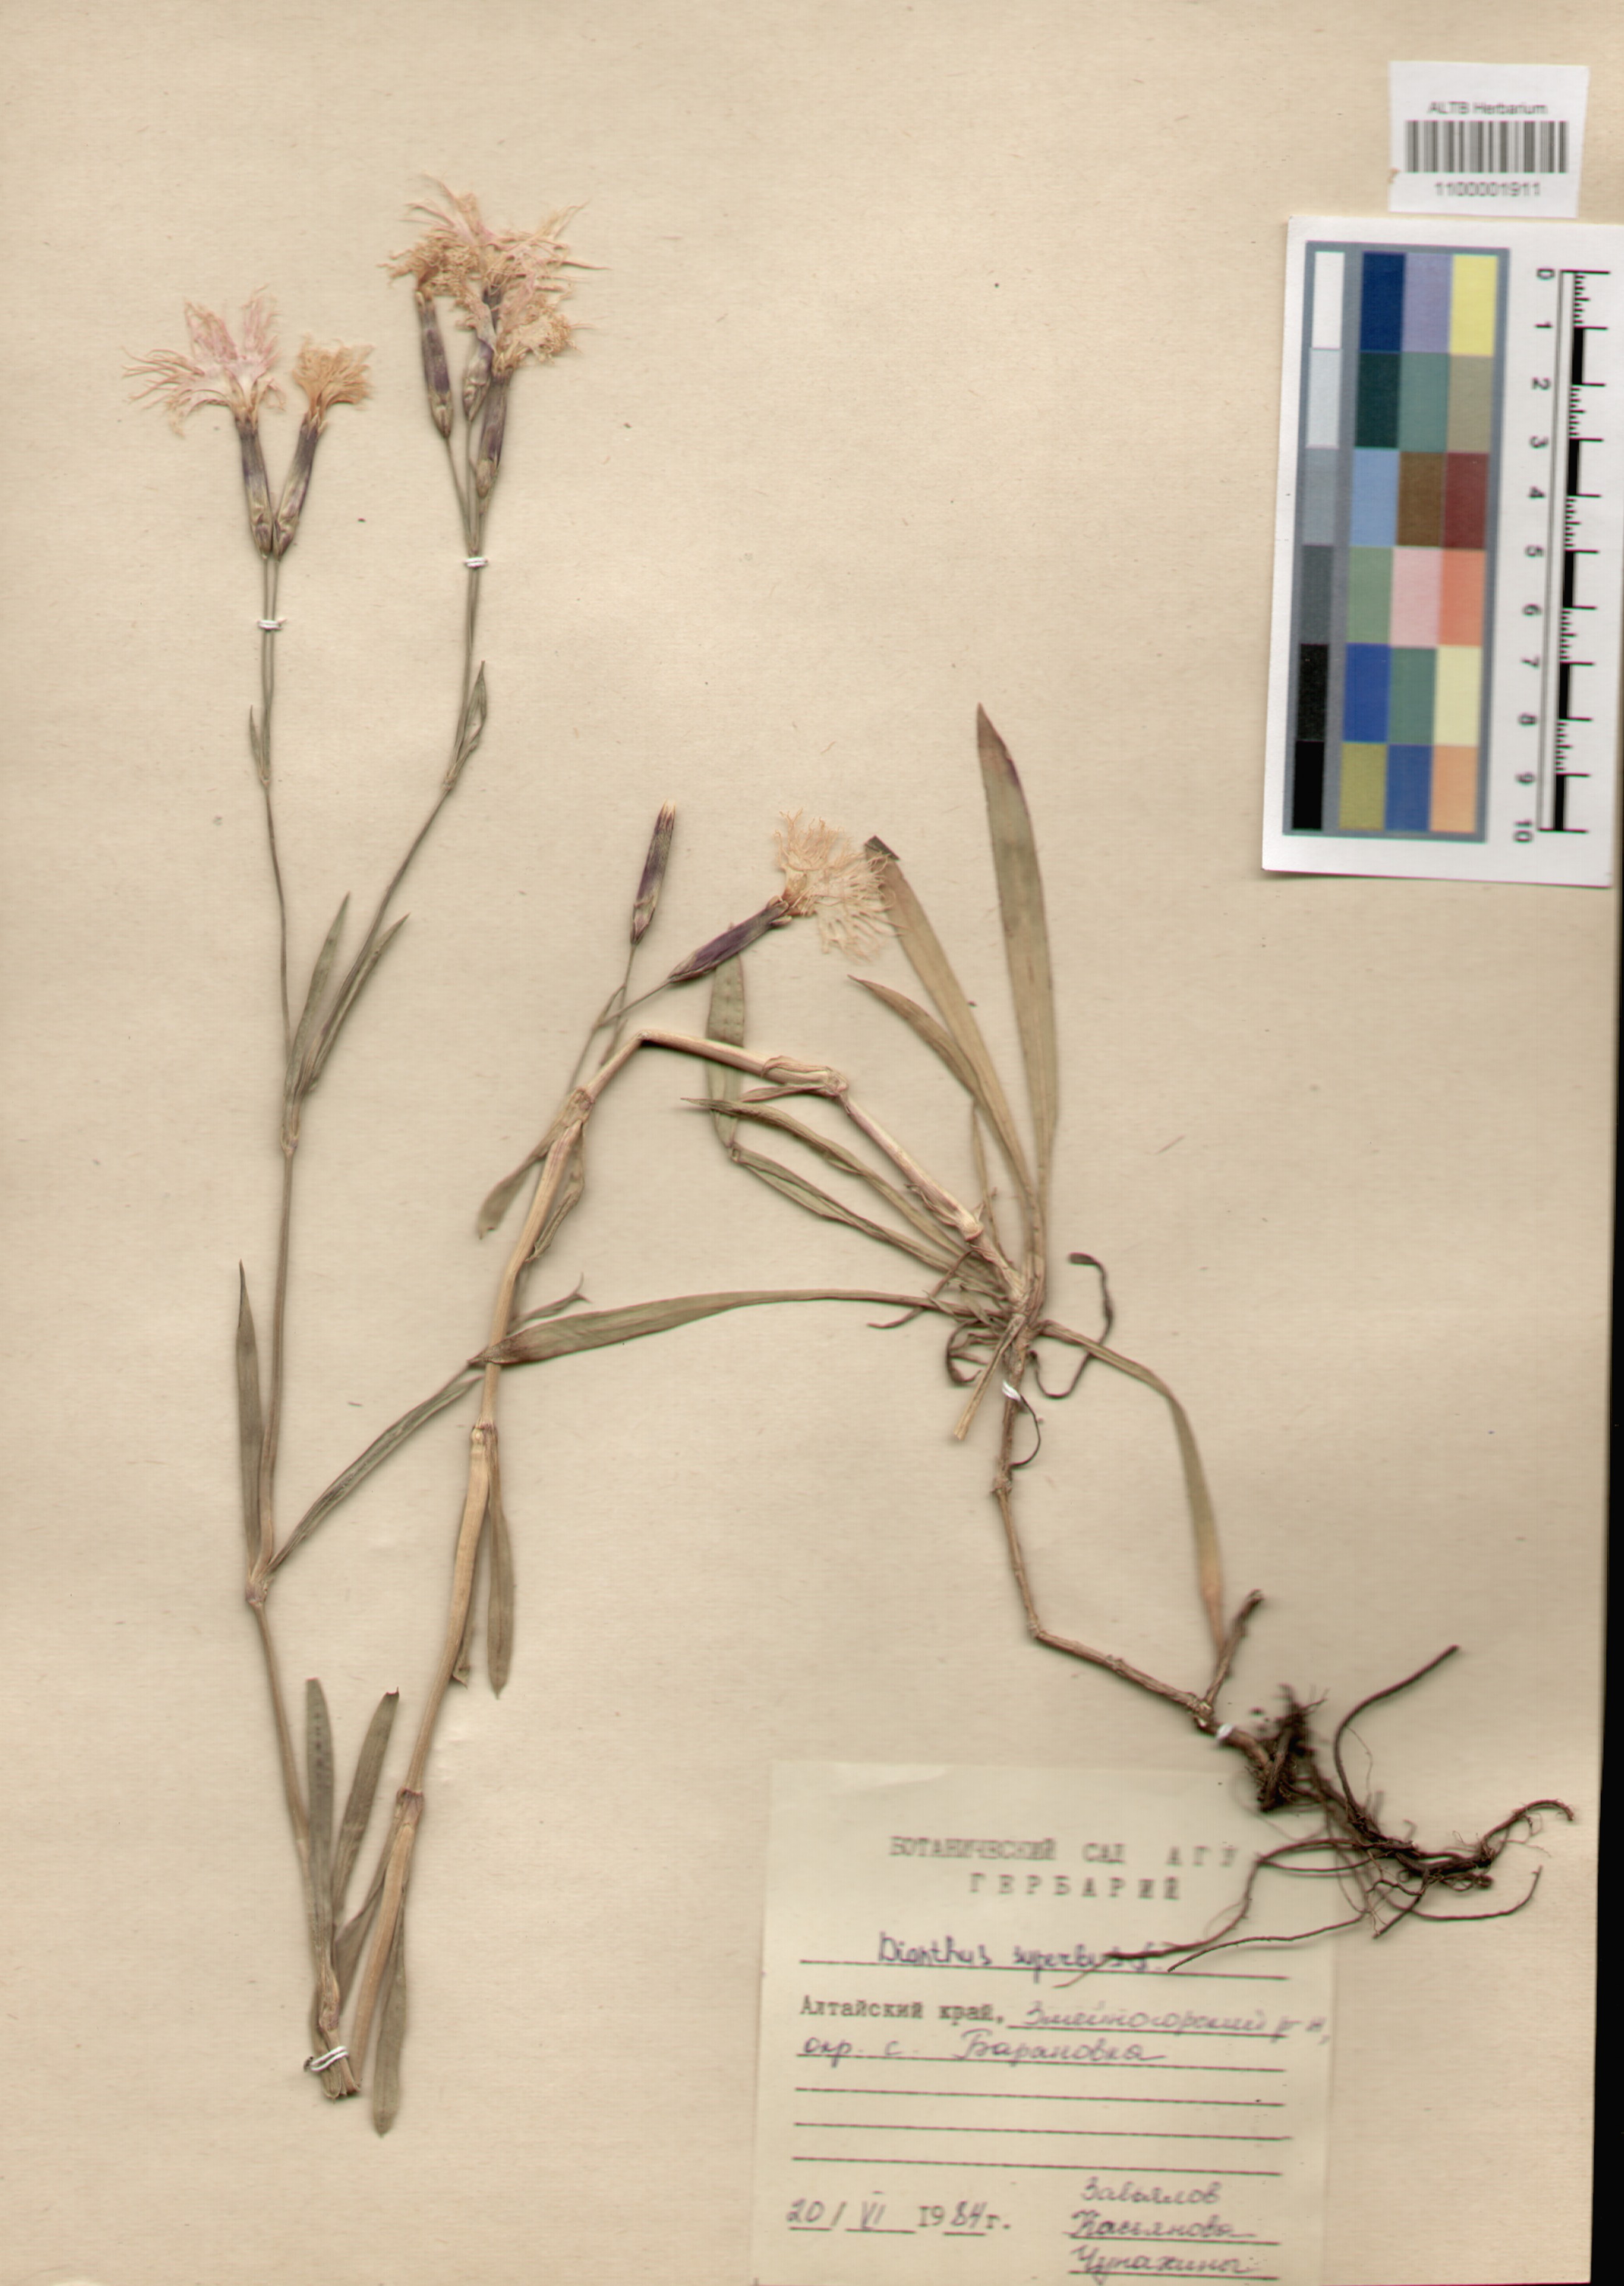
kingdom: Plantae
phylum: Tracheophyta
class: Magnoliopsida
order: Caryophyllales
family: Caryophyllaceae
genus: Dianthus
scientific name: Dianthus superbus
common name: Fringed pink
